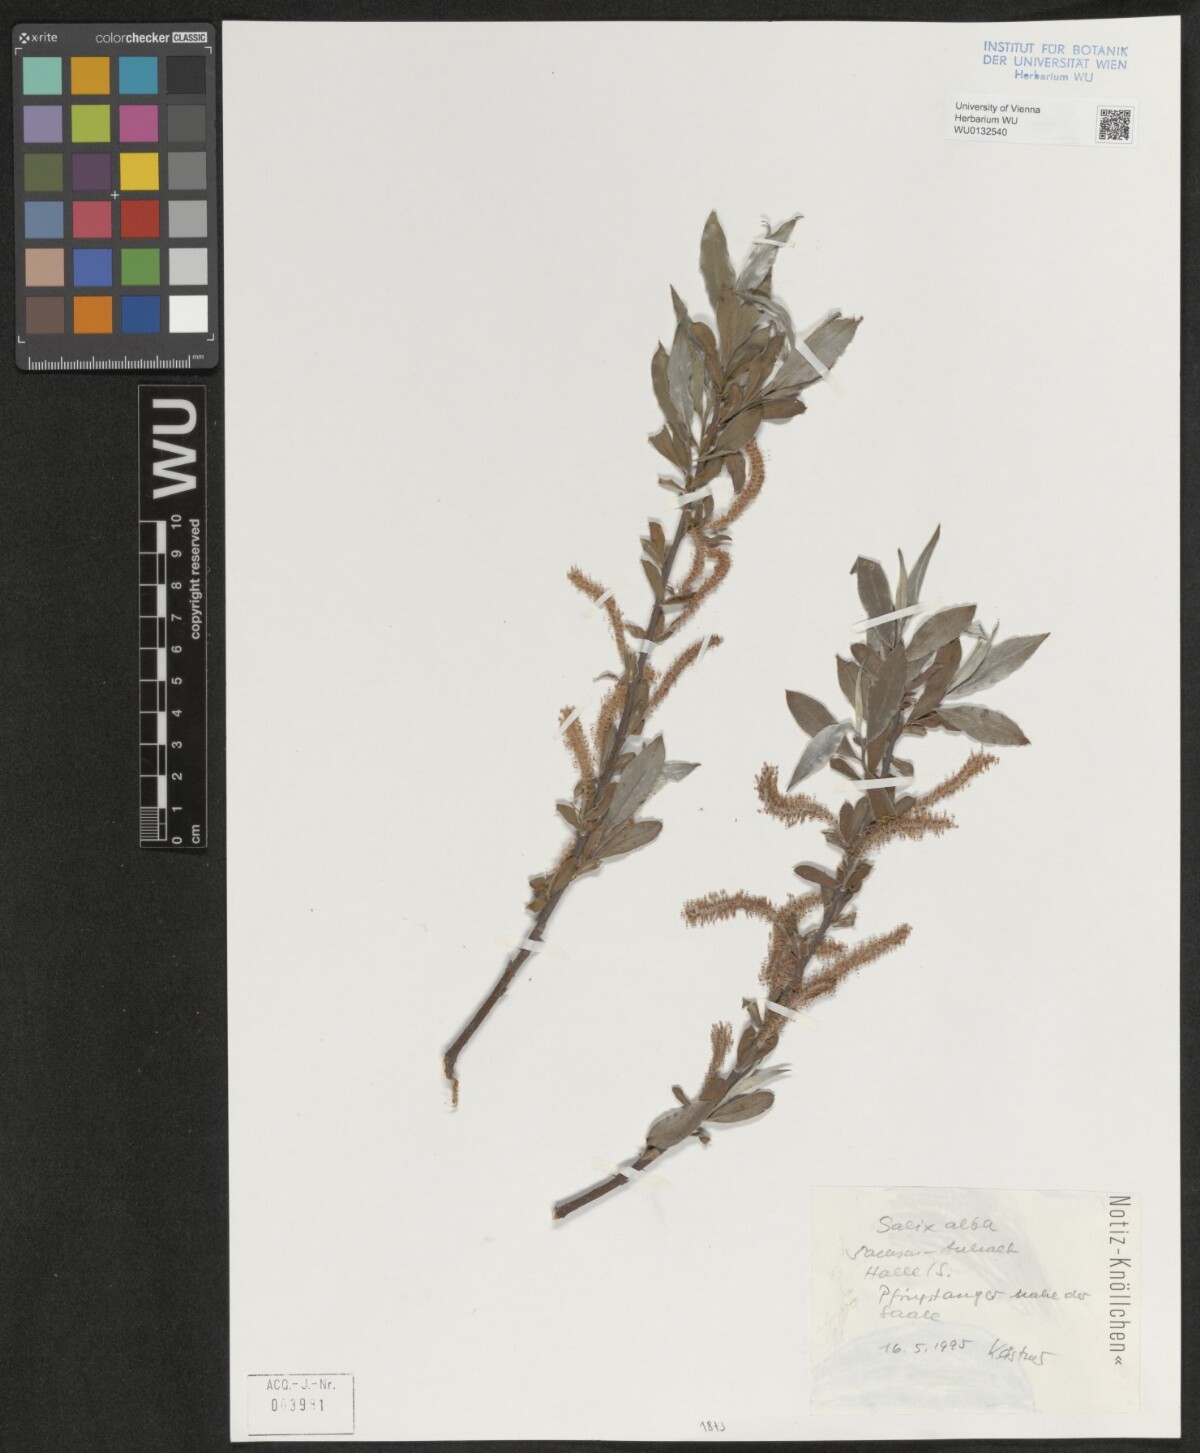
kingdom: Plantae
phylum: Tracheophyta
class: Magnoliopsida
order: Malpighiales
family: Salicaceae
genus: Salix
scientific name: Salix alba
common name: White willow
